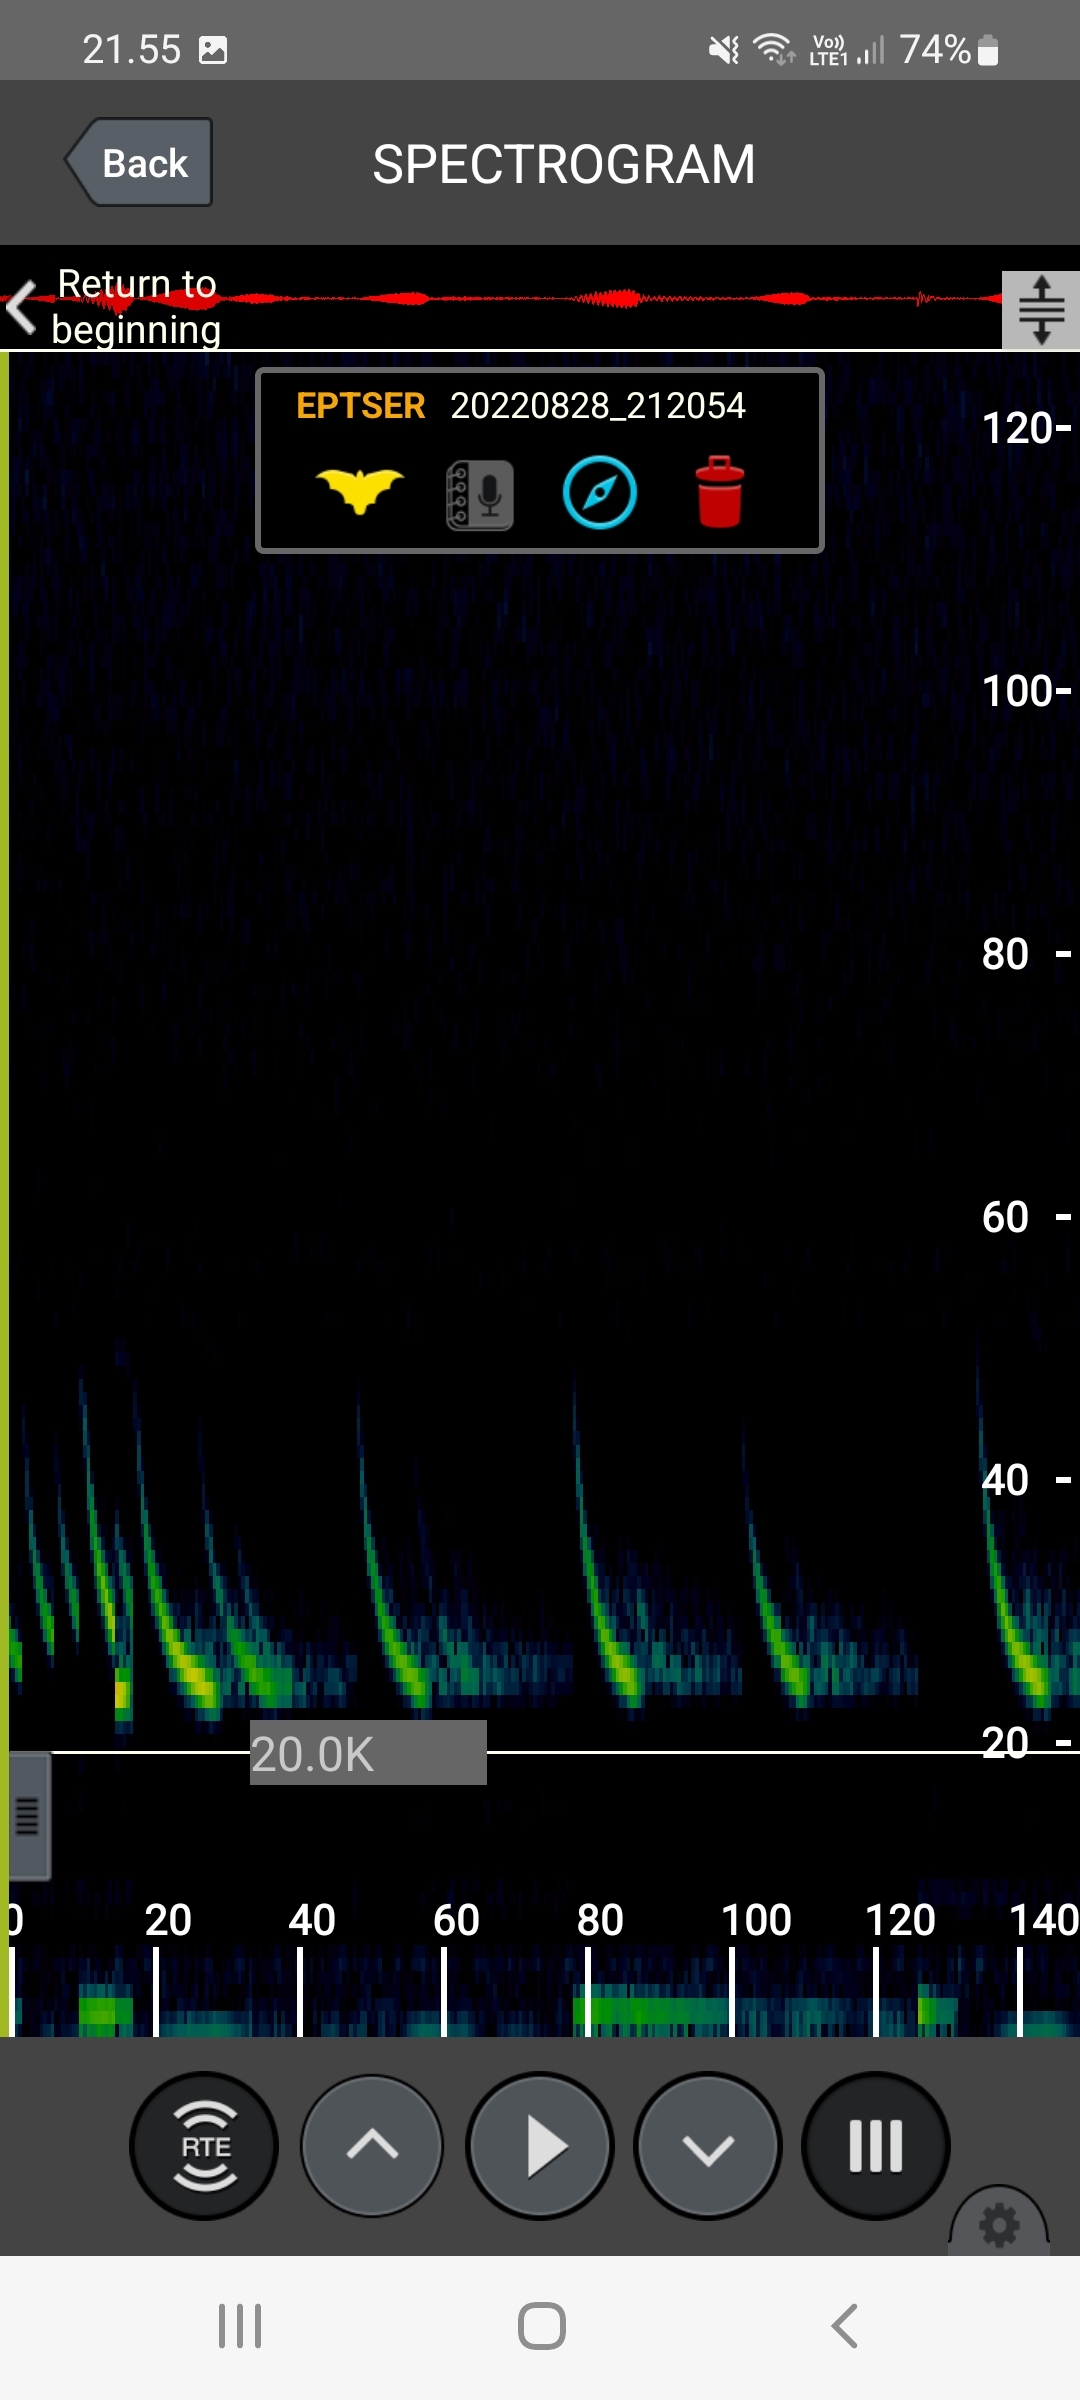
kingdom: Animalia
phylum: Chordata
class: Mammalia
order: Chiroptera
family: Vespertilionidae
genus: Eptesicus
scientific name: Eptesicus serotinus
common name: Sydflagermus
